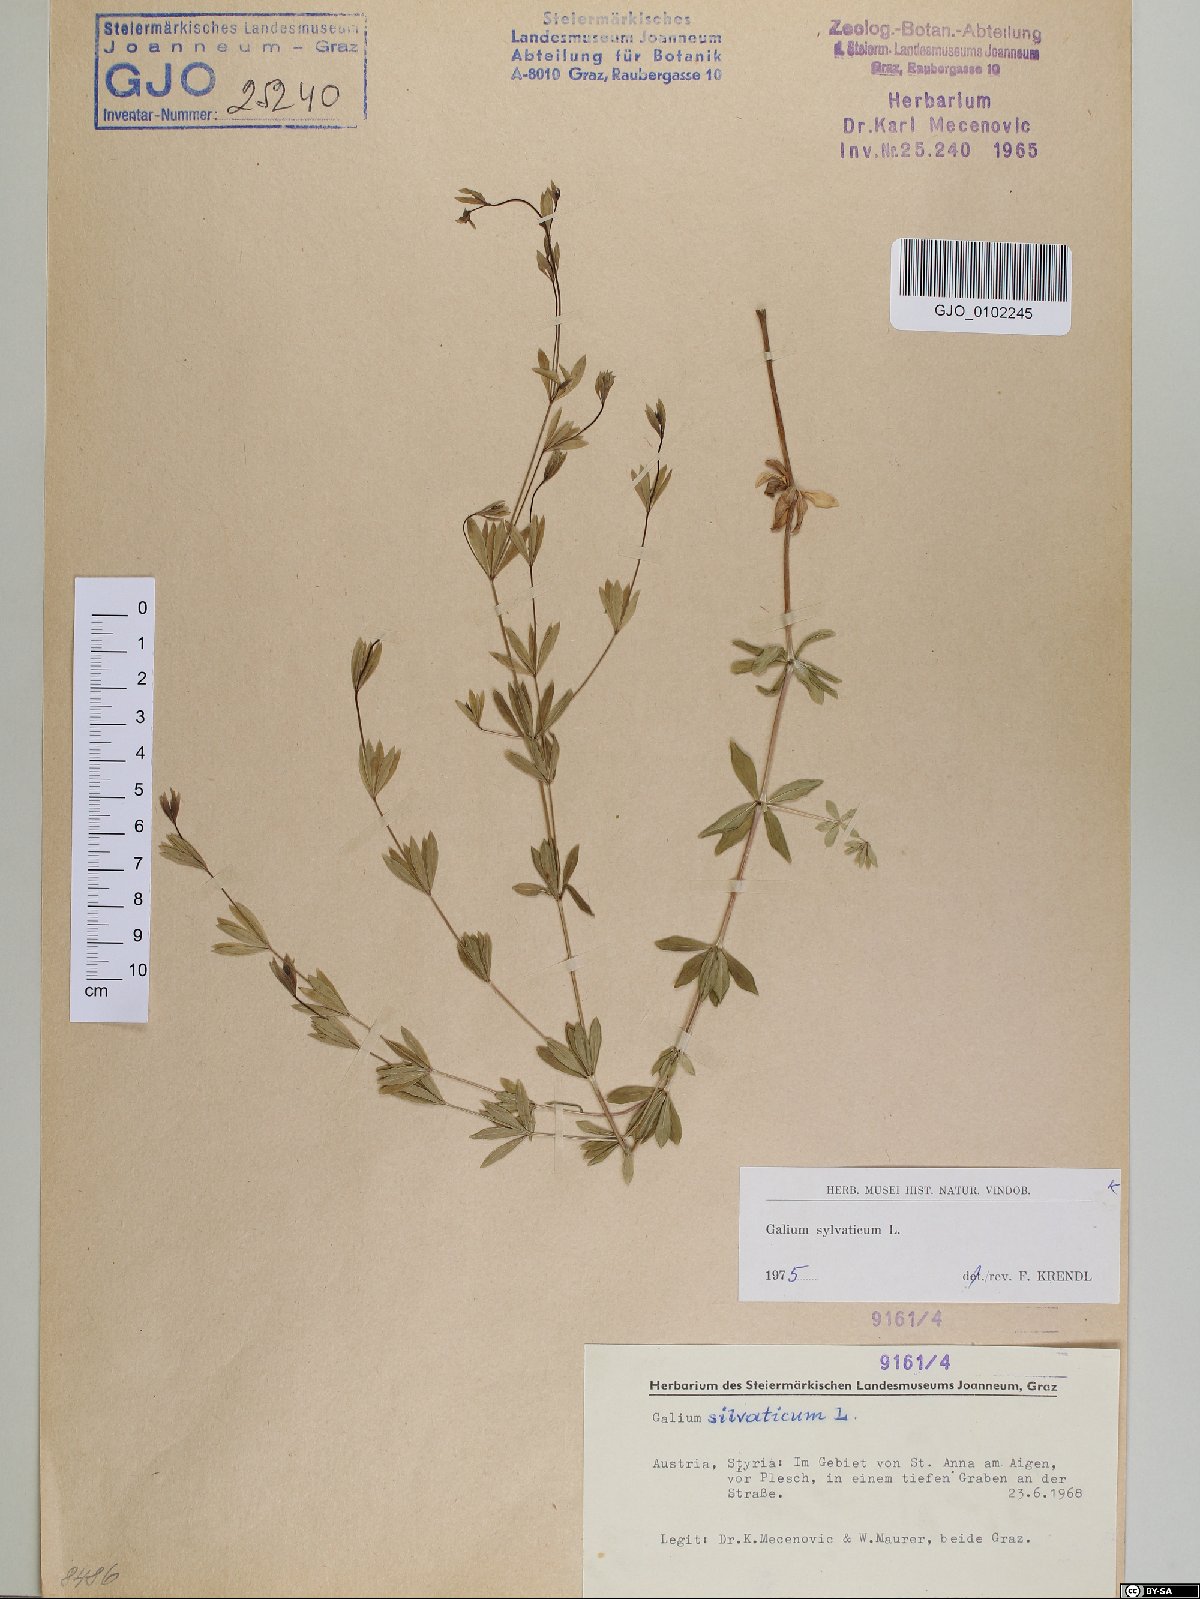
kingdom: Plantae
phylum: Tracheophyta
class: Magnoliopsida
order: Gentianales
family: Rubiaceae
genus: Galium
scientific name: Galium sylvaticum
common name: Wood bedstraw
